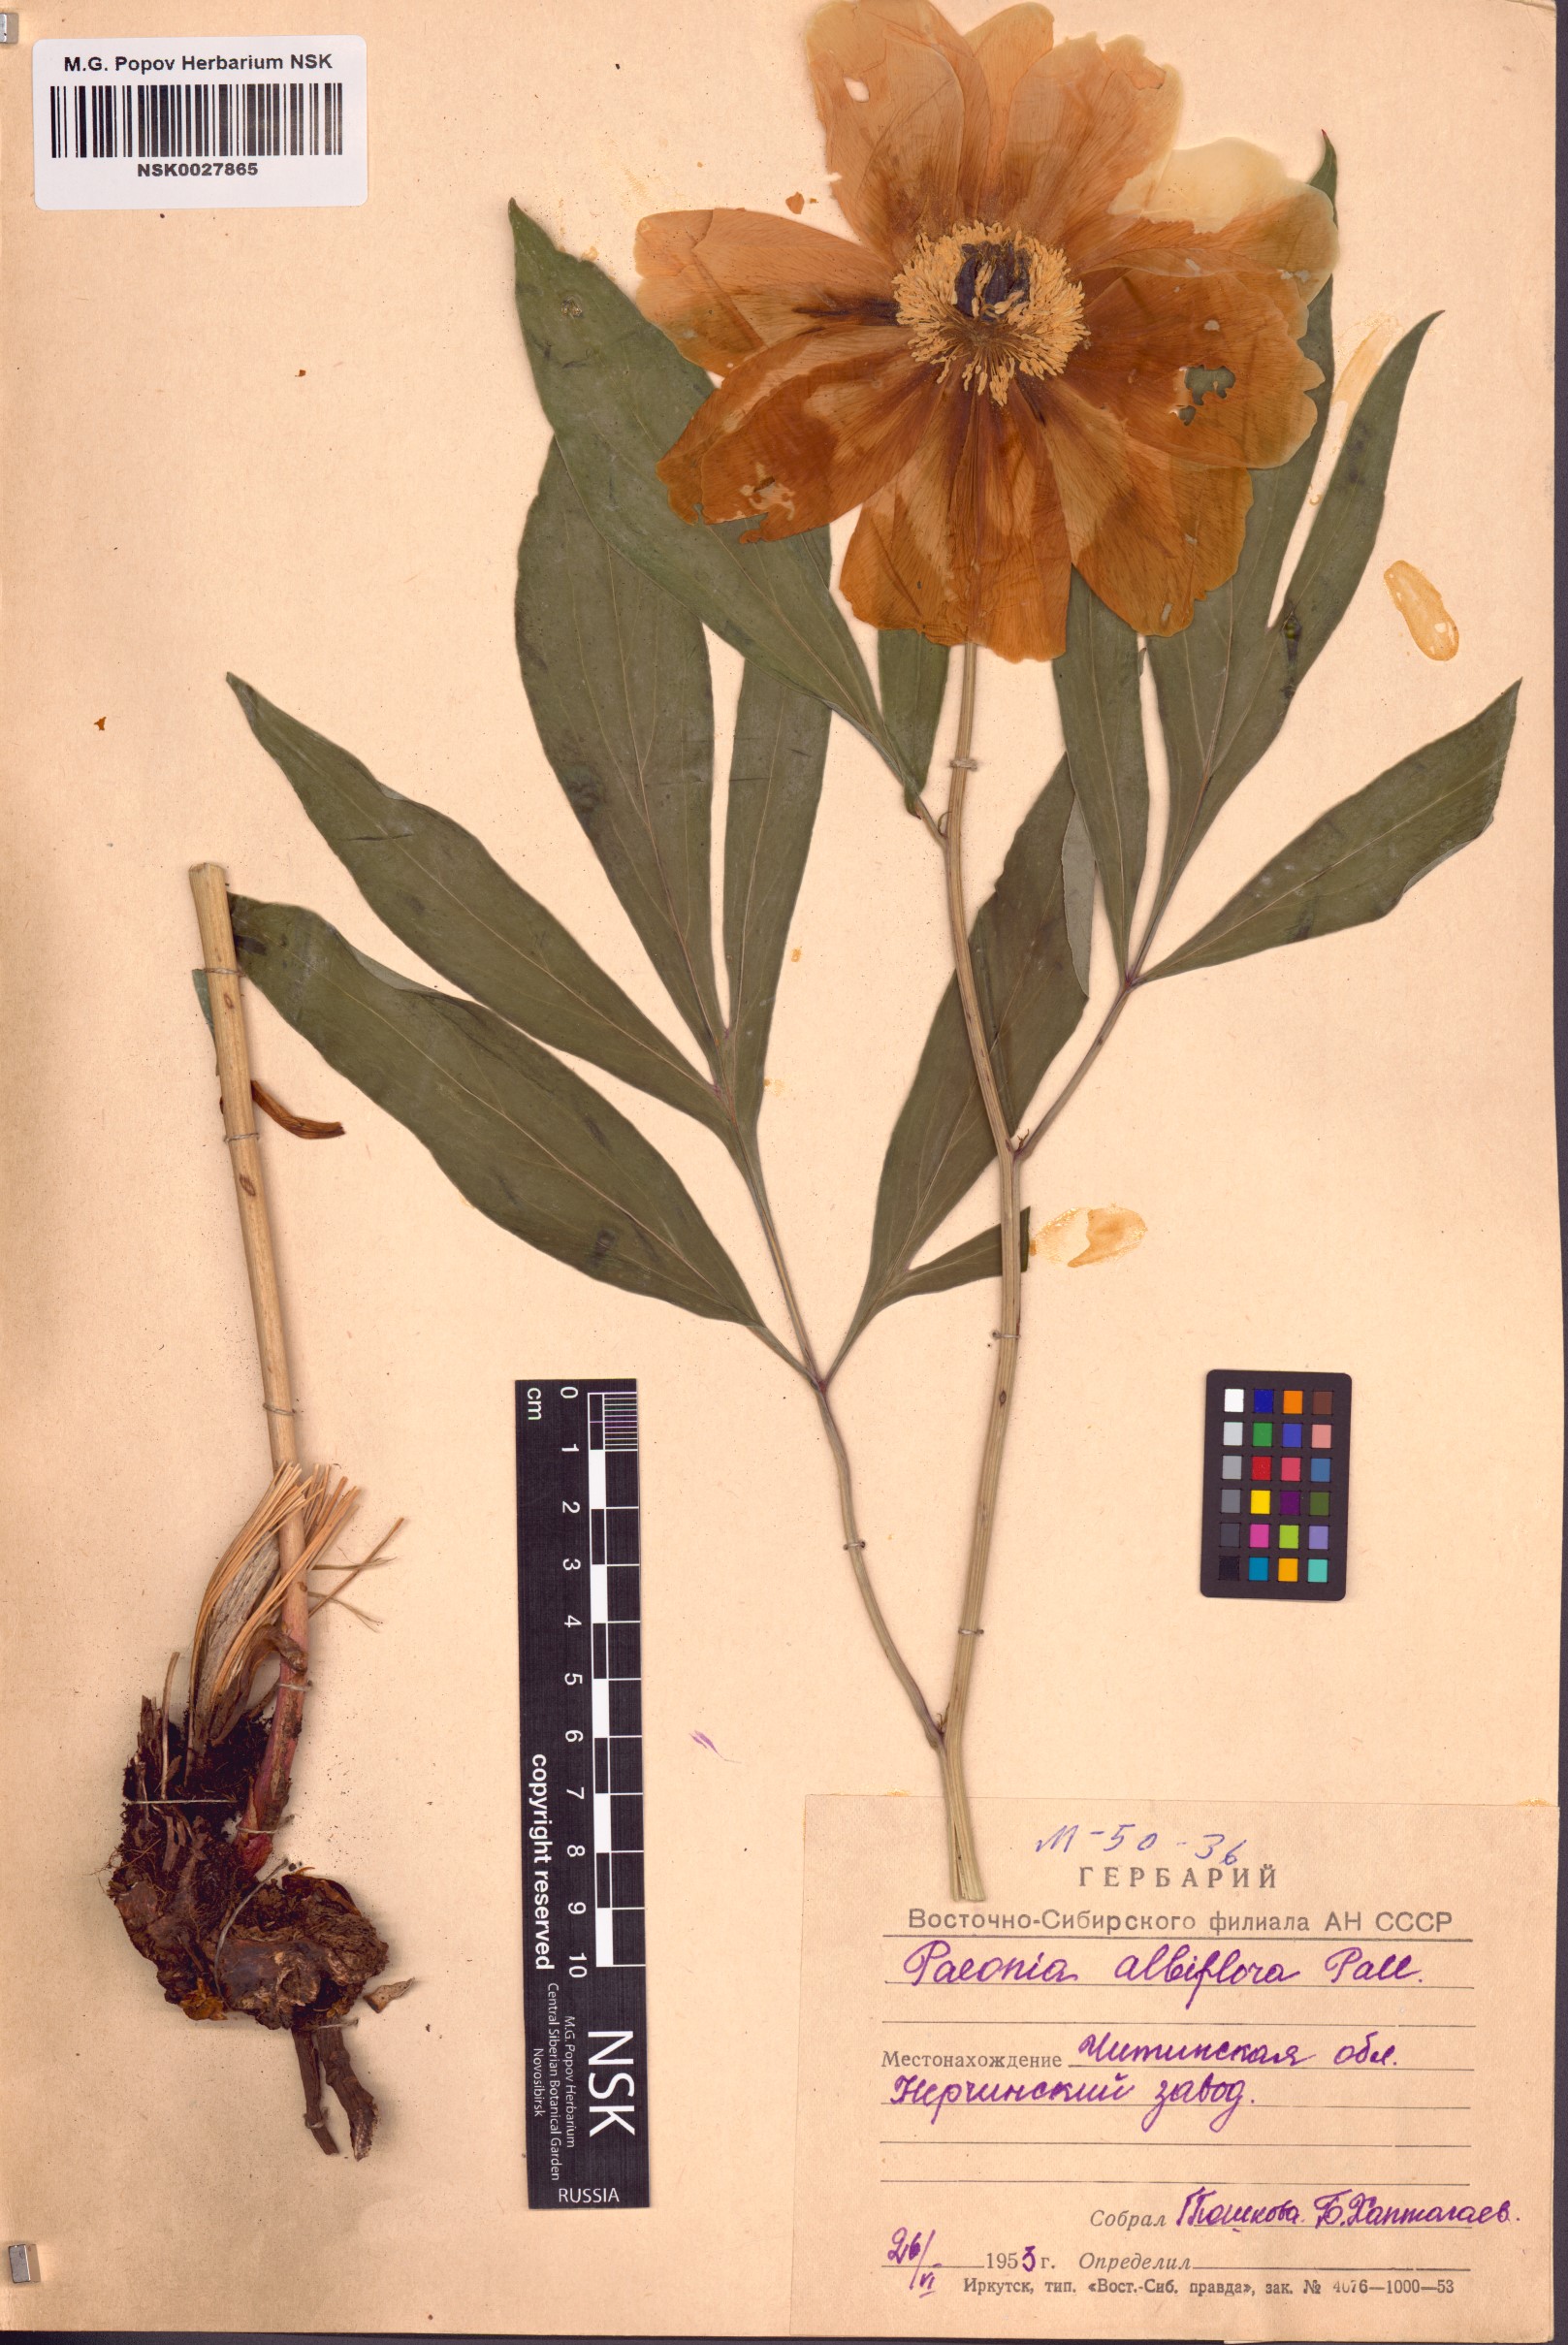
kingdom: Plantae
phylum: Tracheophyta
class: Magnoliopsida
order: Saxifragales
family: Paeoniaceae
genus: Paeonia
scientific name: Paeonia lactiflora
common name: Chinese peony
